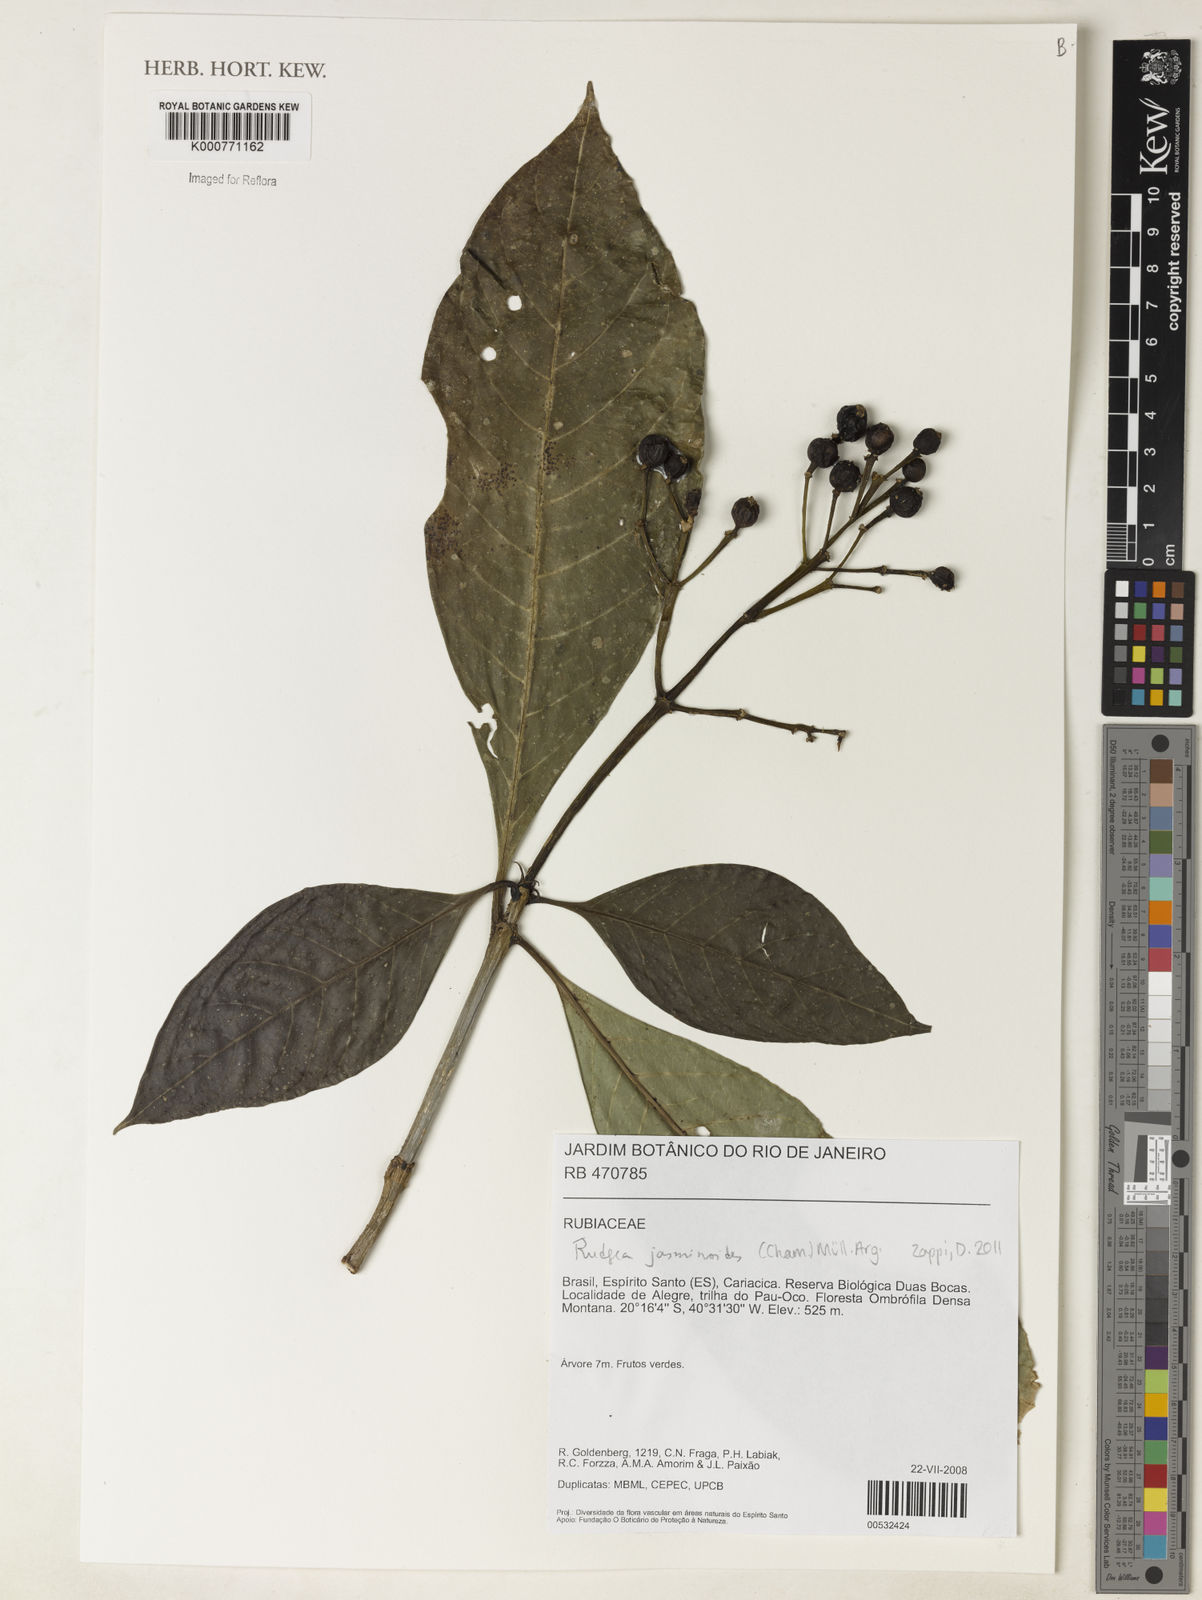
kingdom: Plantae
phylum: Tracheophyta
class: Magnoliopsida
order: Gentianales
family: Rubiaceae
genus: Rudgea
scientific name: Rudgea
